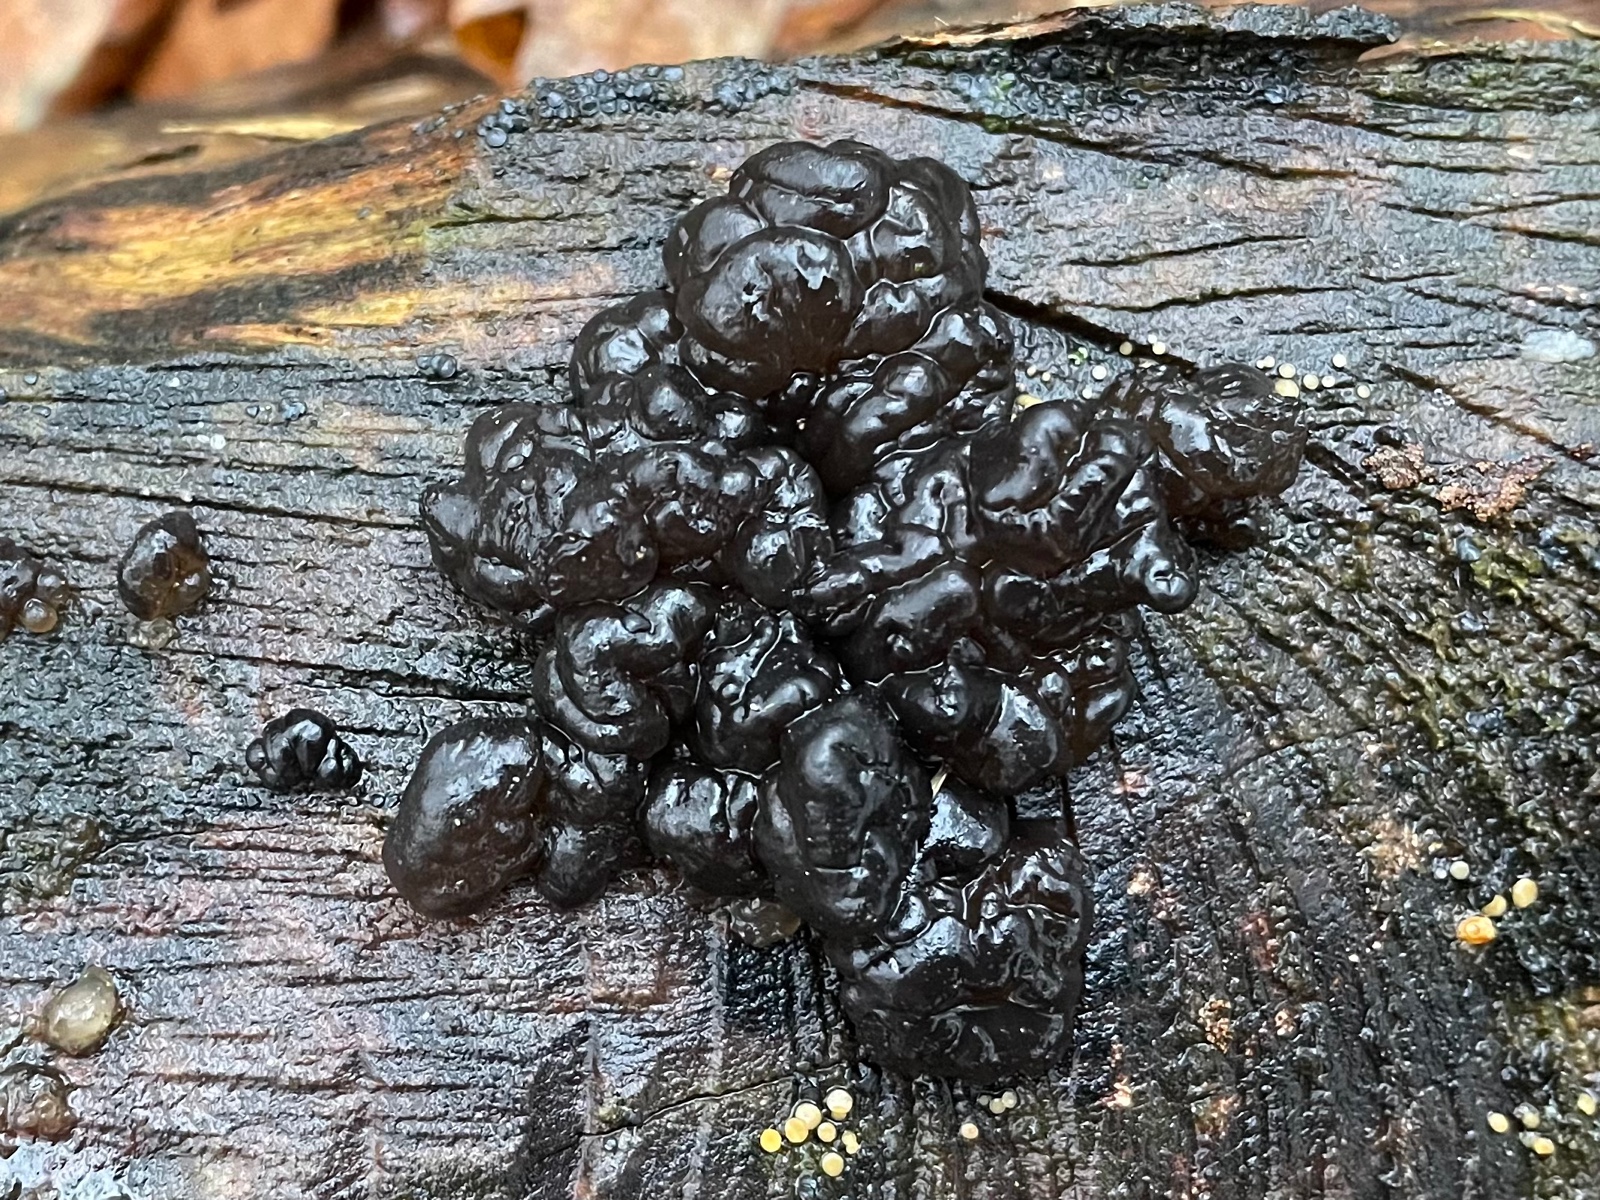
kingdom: Fungi
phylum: Basidiomycota
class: Agaricomycetes
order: Auriculariales
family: Auriculariaceae
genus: Exidia
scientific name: Exidia nigricans
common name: almindelig bævretop
